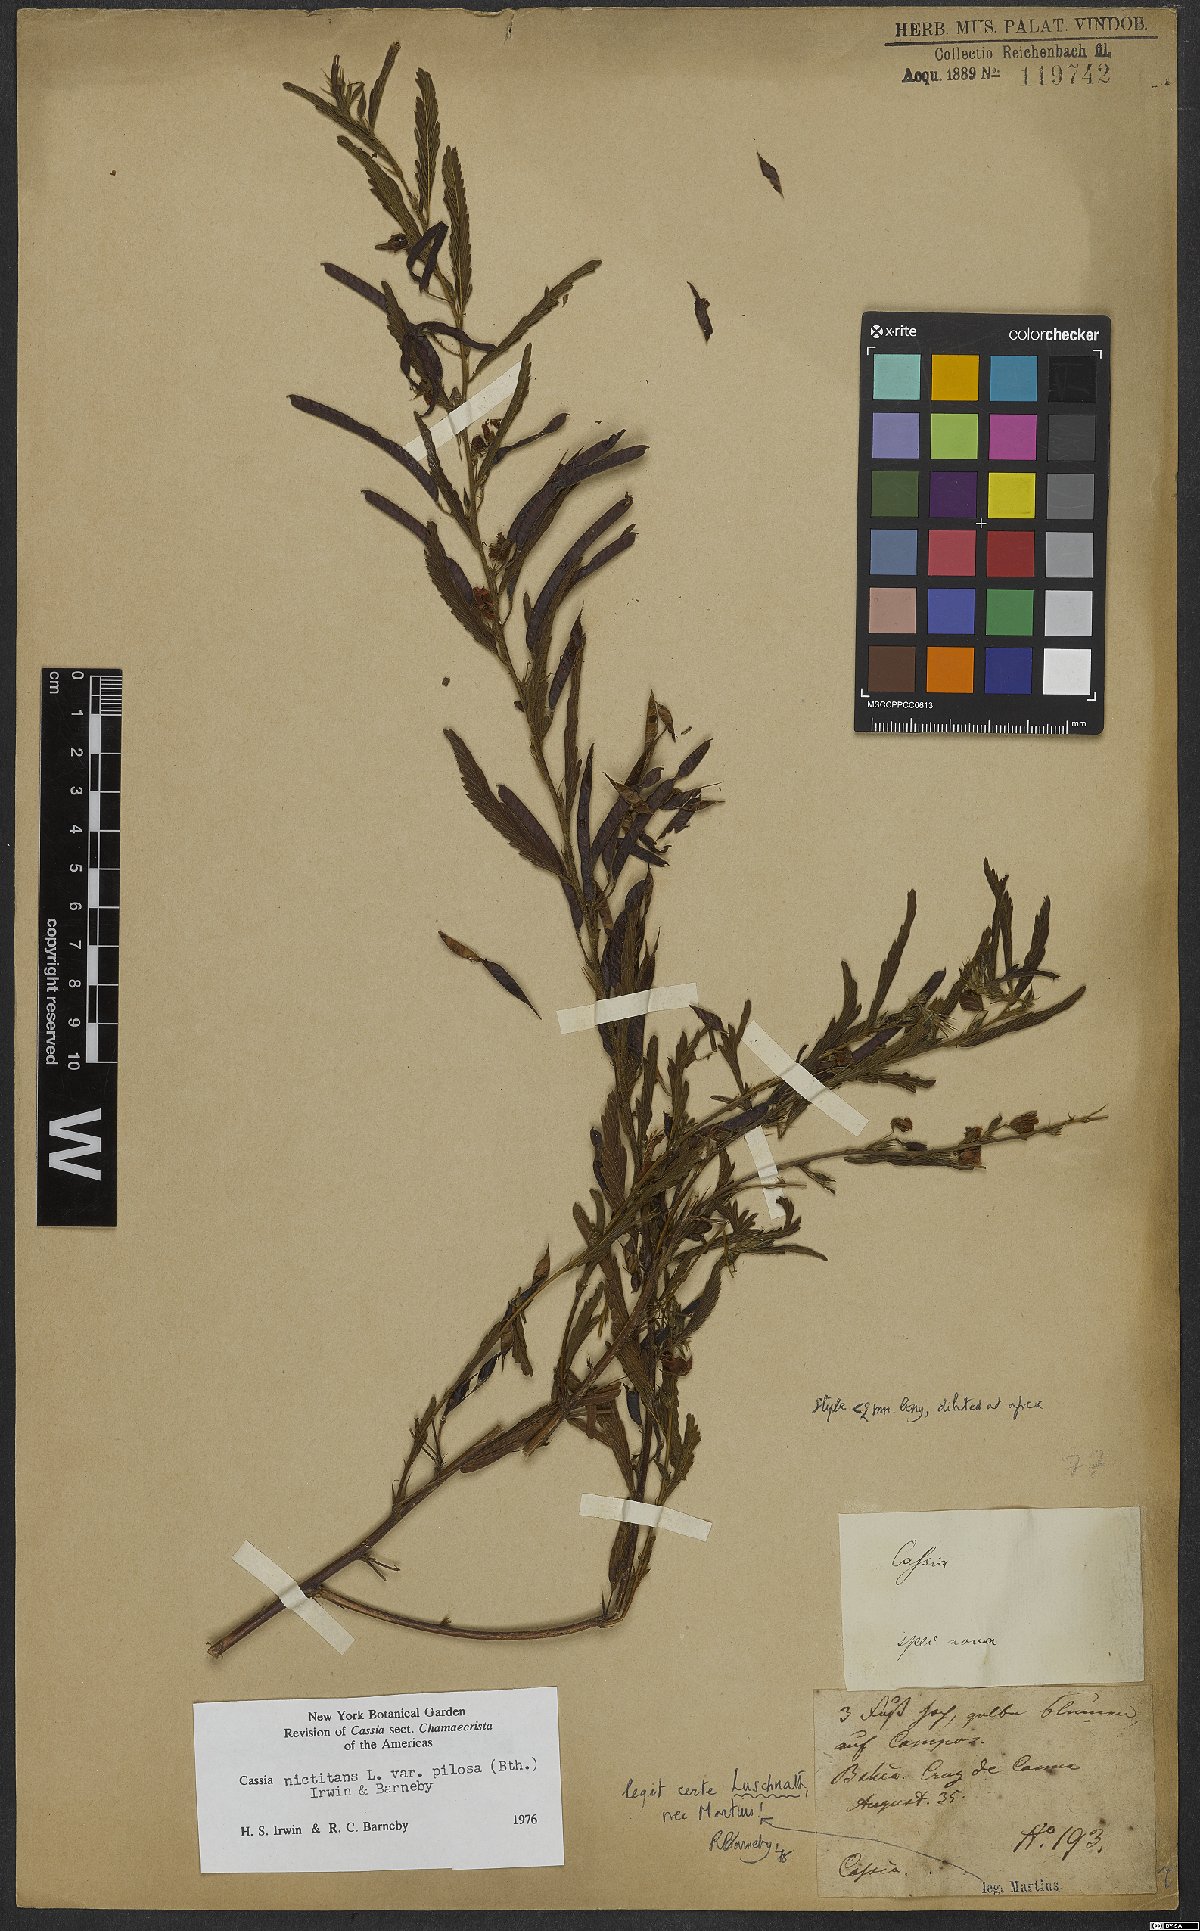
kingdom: Plantae
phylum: Tracheophyta
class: Magnoliopsida
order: Fabales
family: Fabaceae
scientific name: Fabaceae
